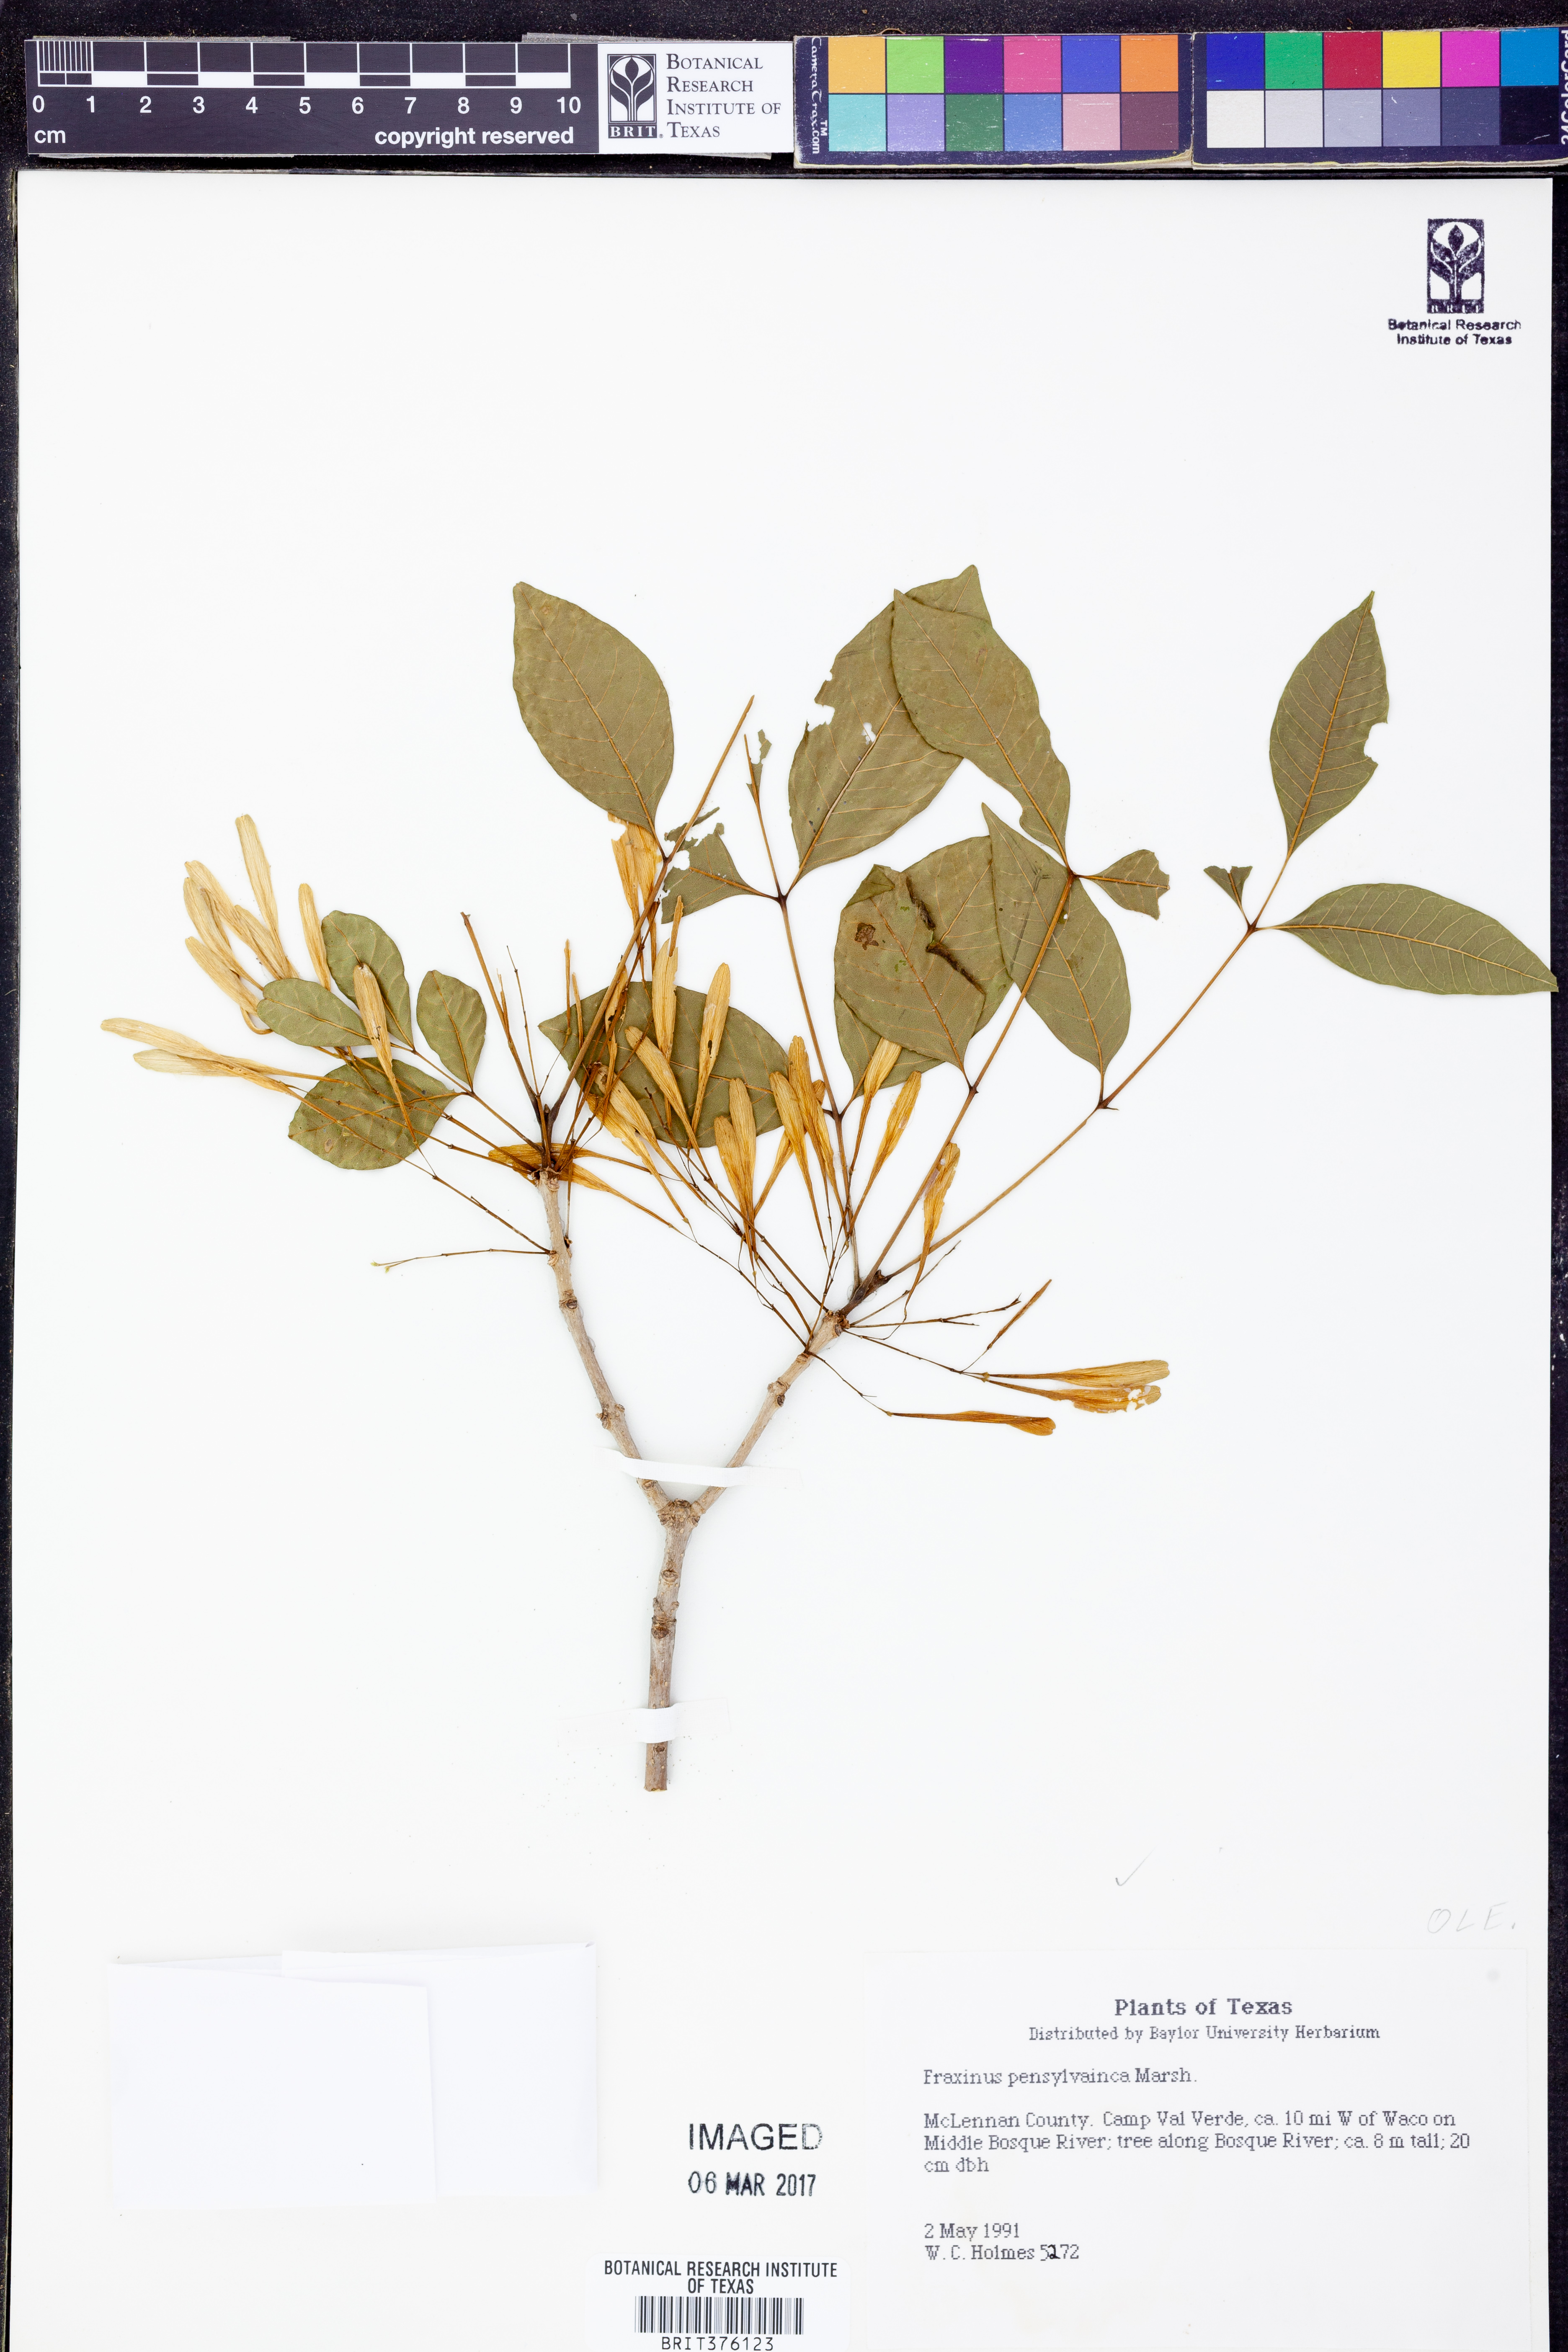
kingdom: Plantae
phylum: Tracheophyta
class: Magnoliopsida
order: Lamiales
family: Oleaceae
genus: Fraxinus
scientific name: Fraxinus pennsylvanica
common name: Green ash
